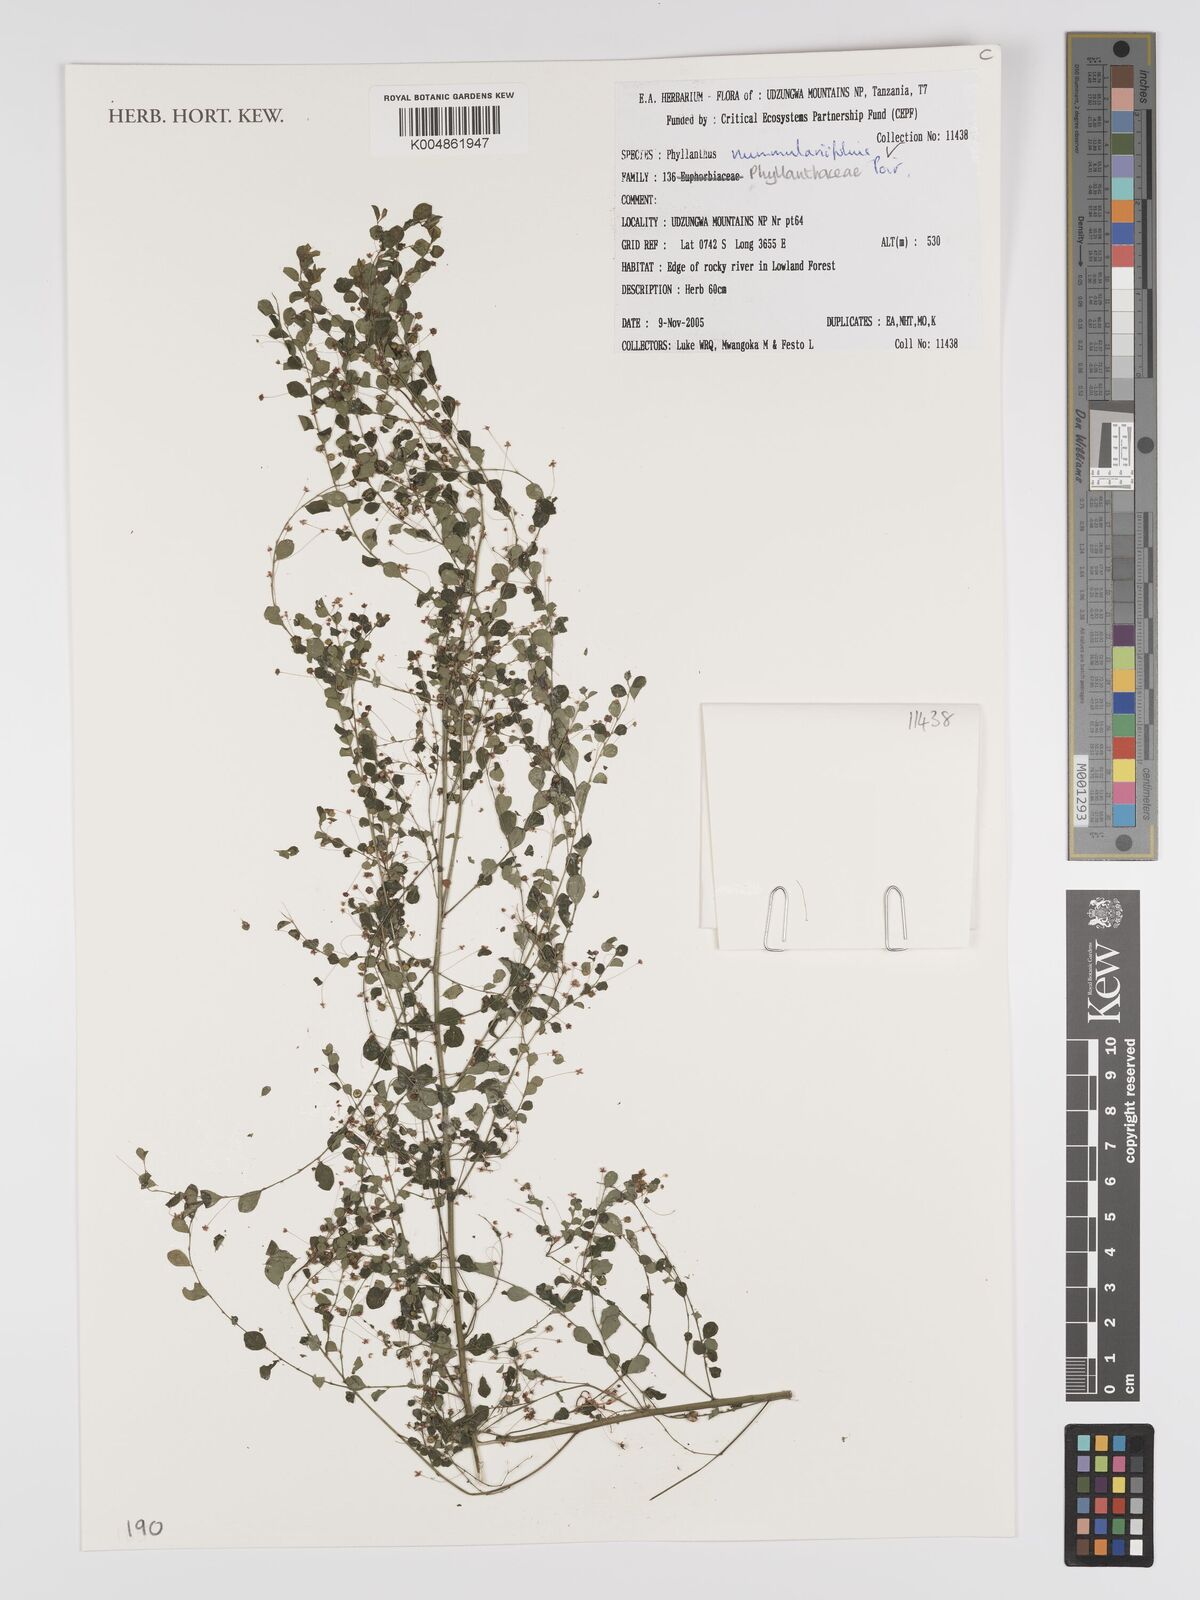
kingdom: Plantae
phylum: Tracheophyta
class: Magnoliopsida
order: Malpighiales
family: Phyllanthaceae
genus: Phyllanthus
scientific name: Phyllanthus nummulariifolius
